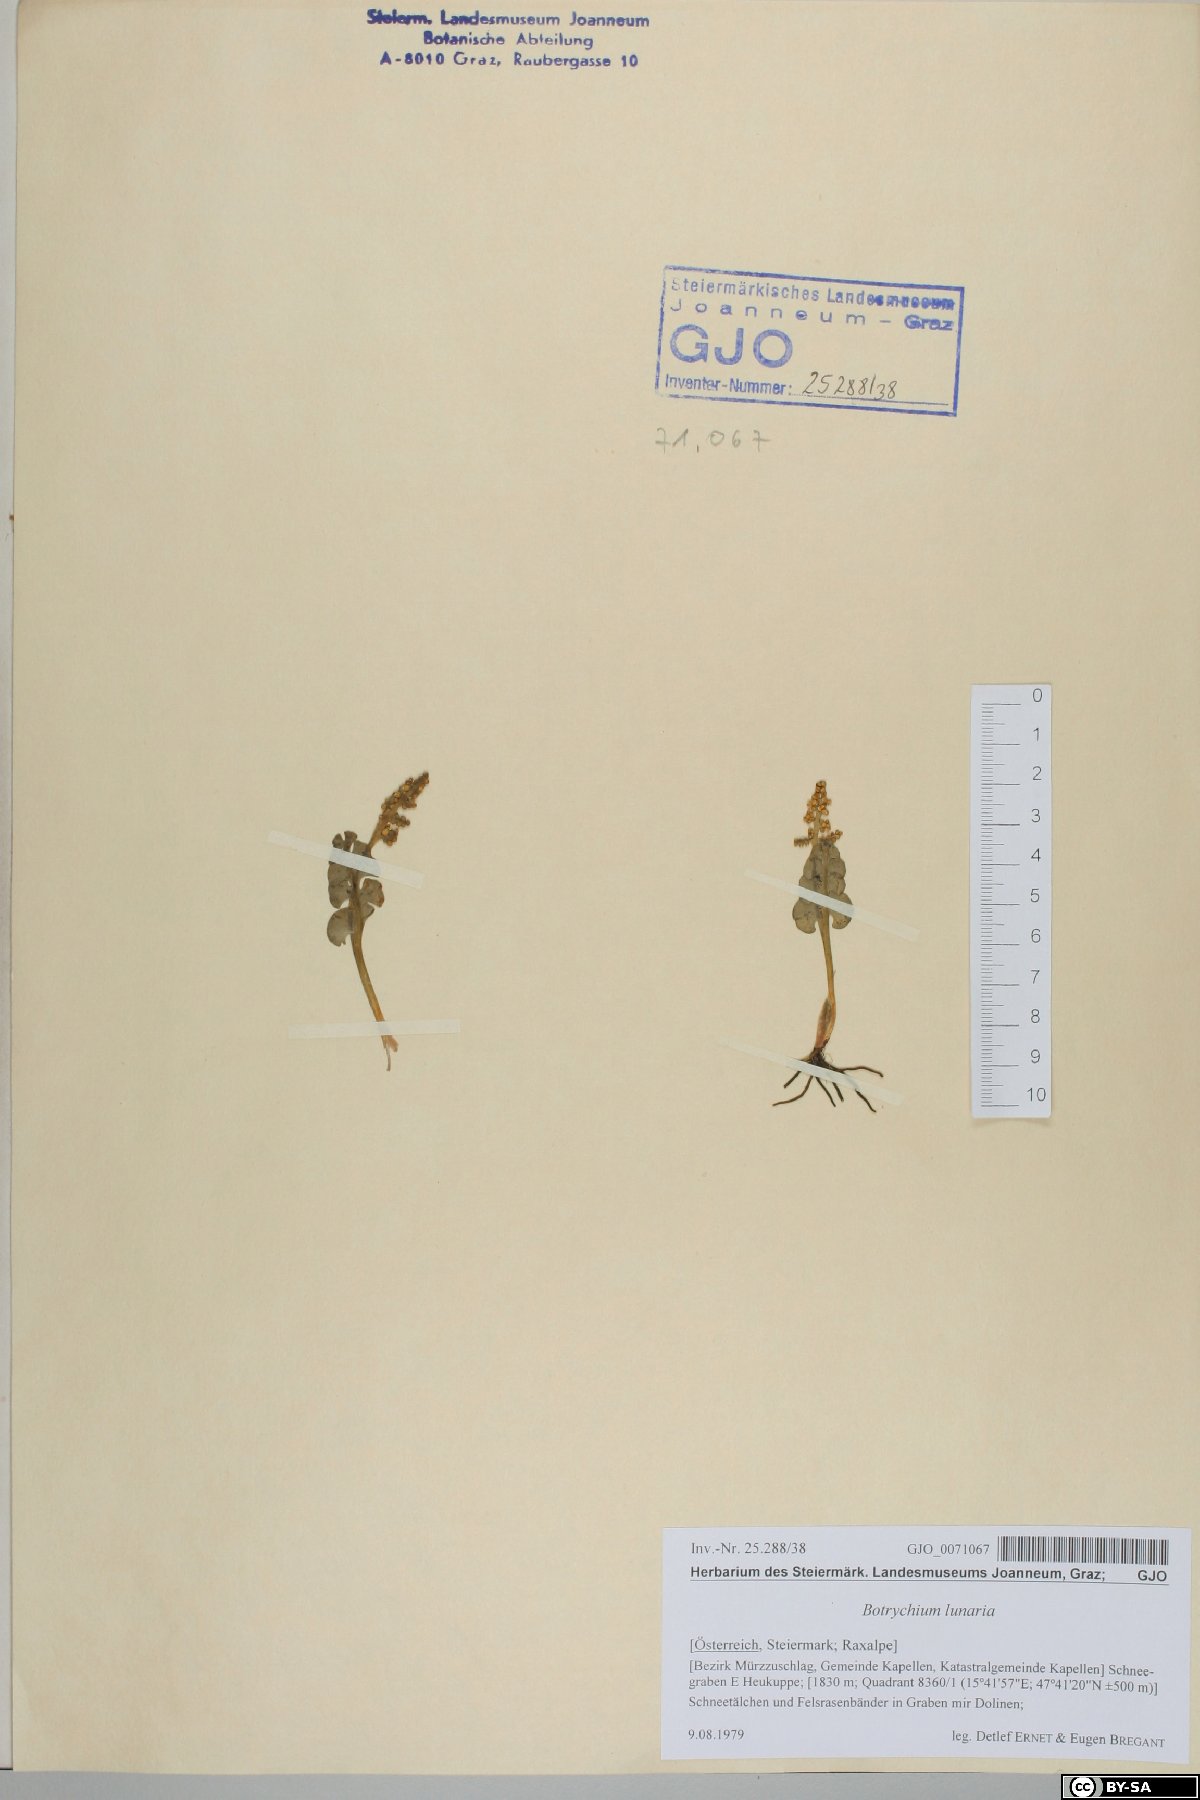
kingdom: Plantae
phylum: Tracheophyta
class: Polypodiopsida
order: Ophioglossales
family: Ophioglossaceae
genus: Botrychium
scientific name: Botrychium lunaria
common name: Moonwort
